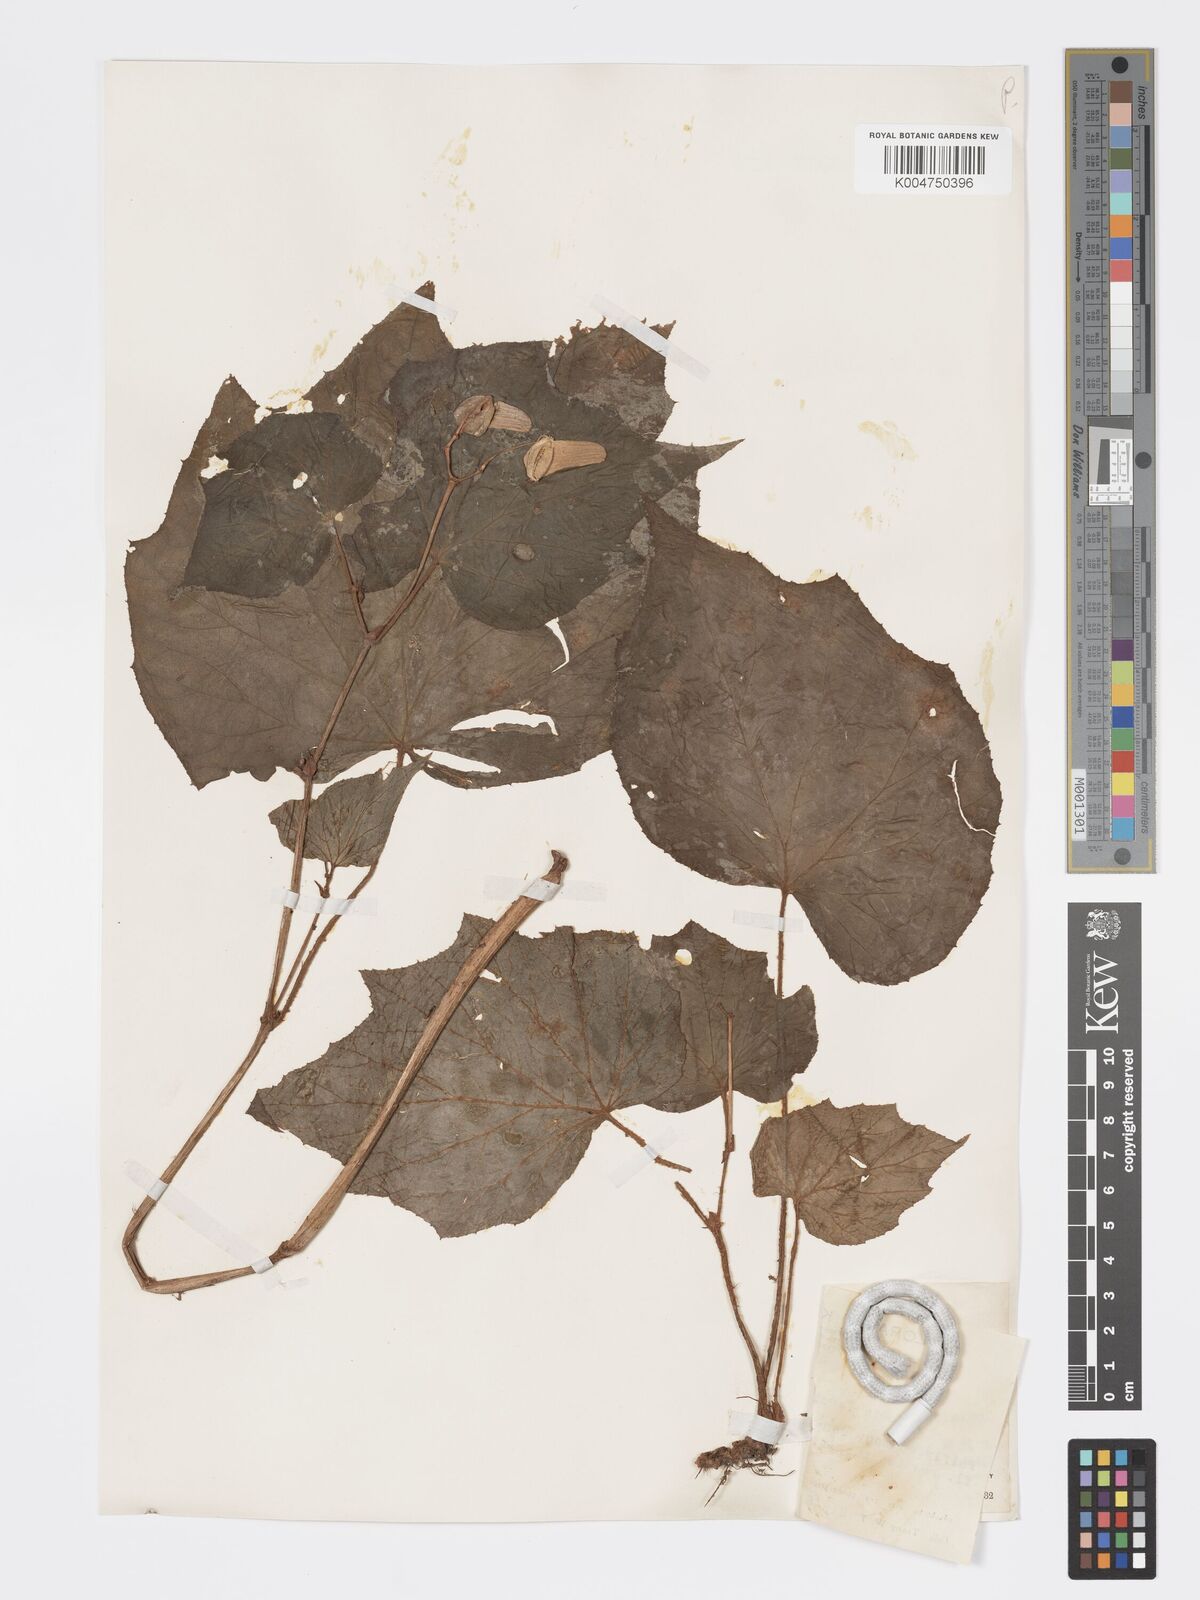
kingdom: Plantae
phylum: Tracheophyta
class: Magnoliopsida
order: Cucurbitales
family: Begoniaceae
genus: Begonia
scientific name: Begonia palmata
